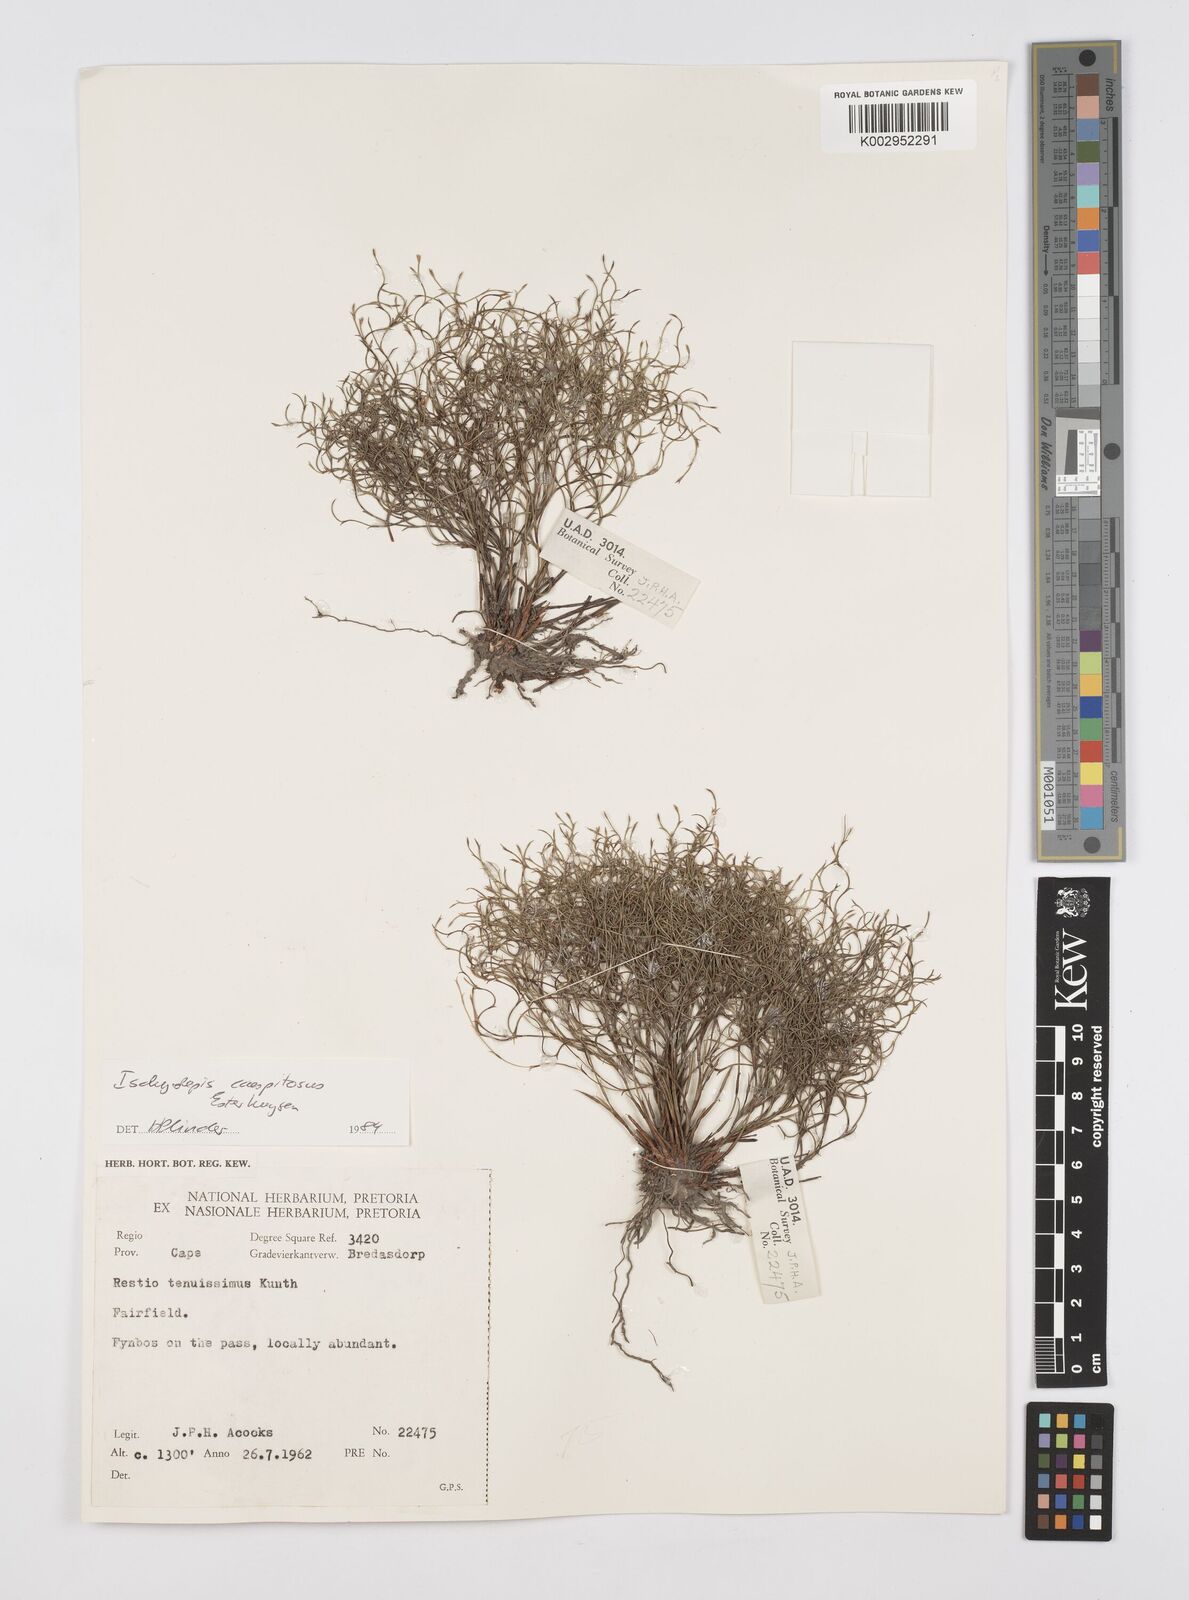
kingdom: Plantae
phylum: Tracheophyta
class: Liliopsida
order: Poales
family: Restionaceae
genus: Restio
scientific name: Restio caespitosus
